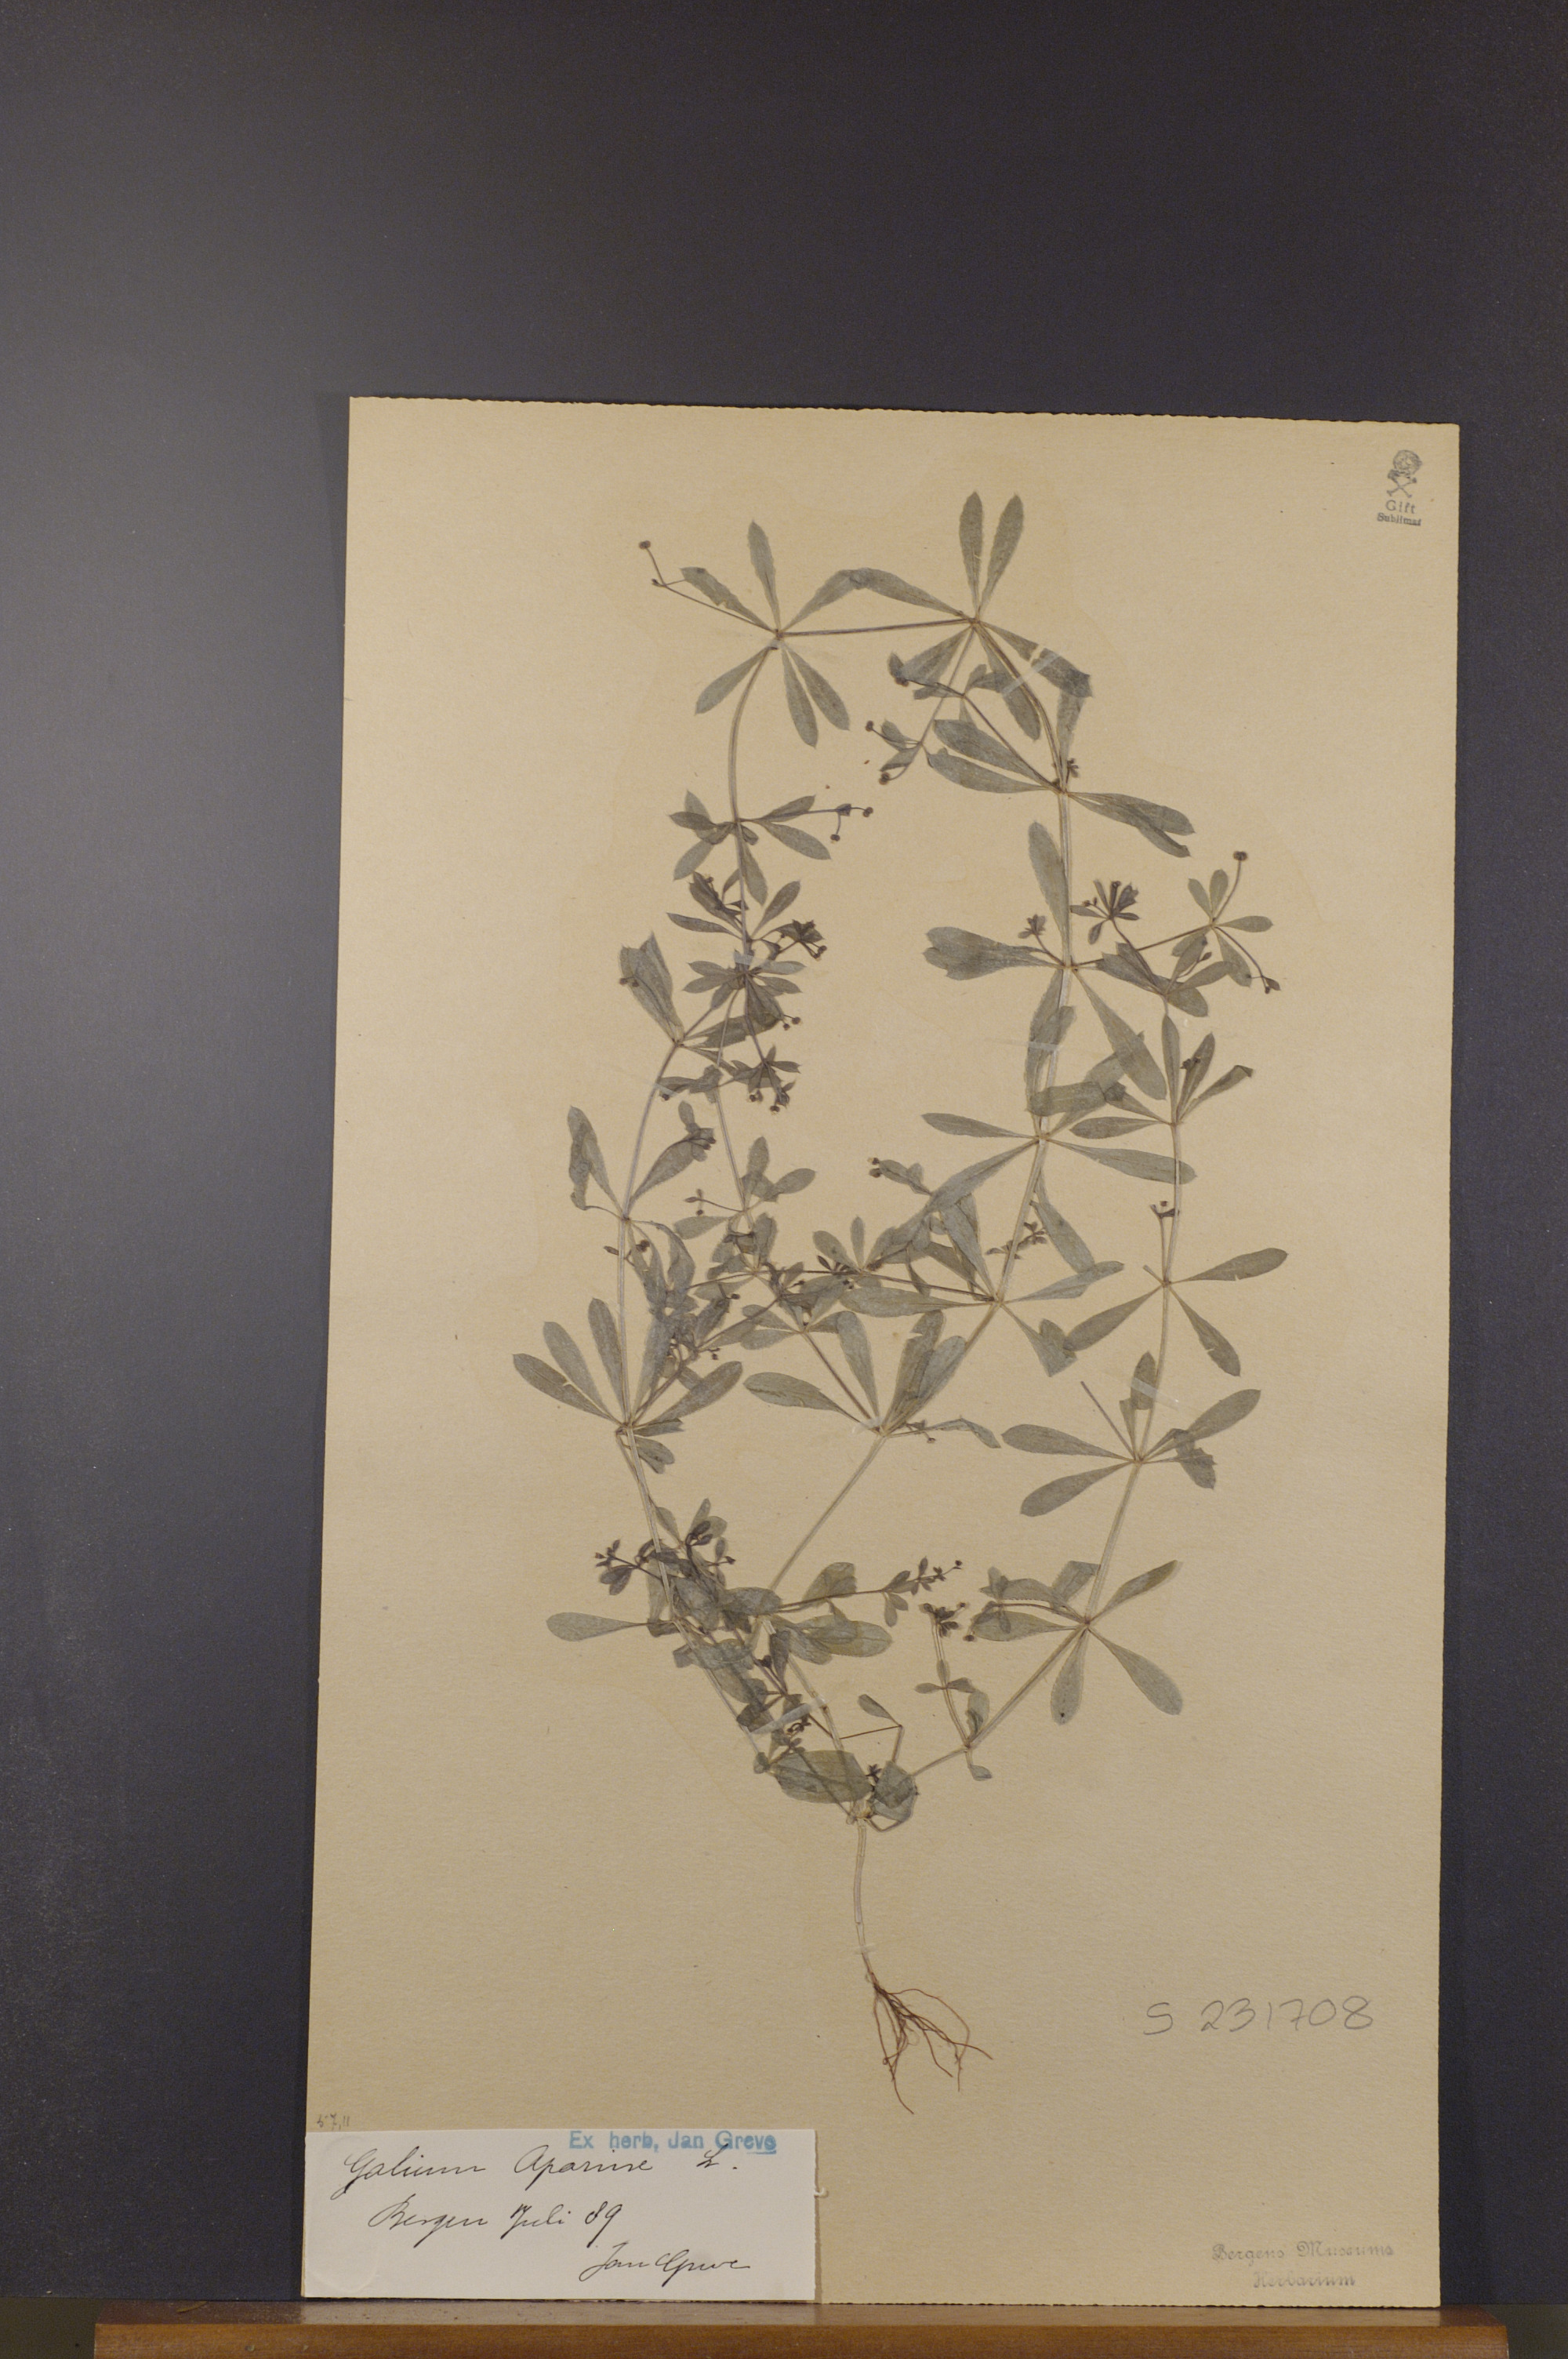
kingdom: Plantae
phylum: Tracheophyta
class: Magnoliopsida
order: Gentianales
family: Rubiaceae
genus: Galium
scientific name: Galium aparine
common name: Cleavers
